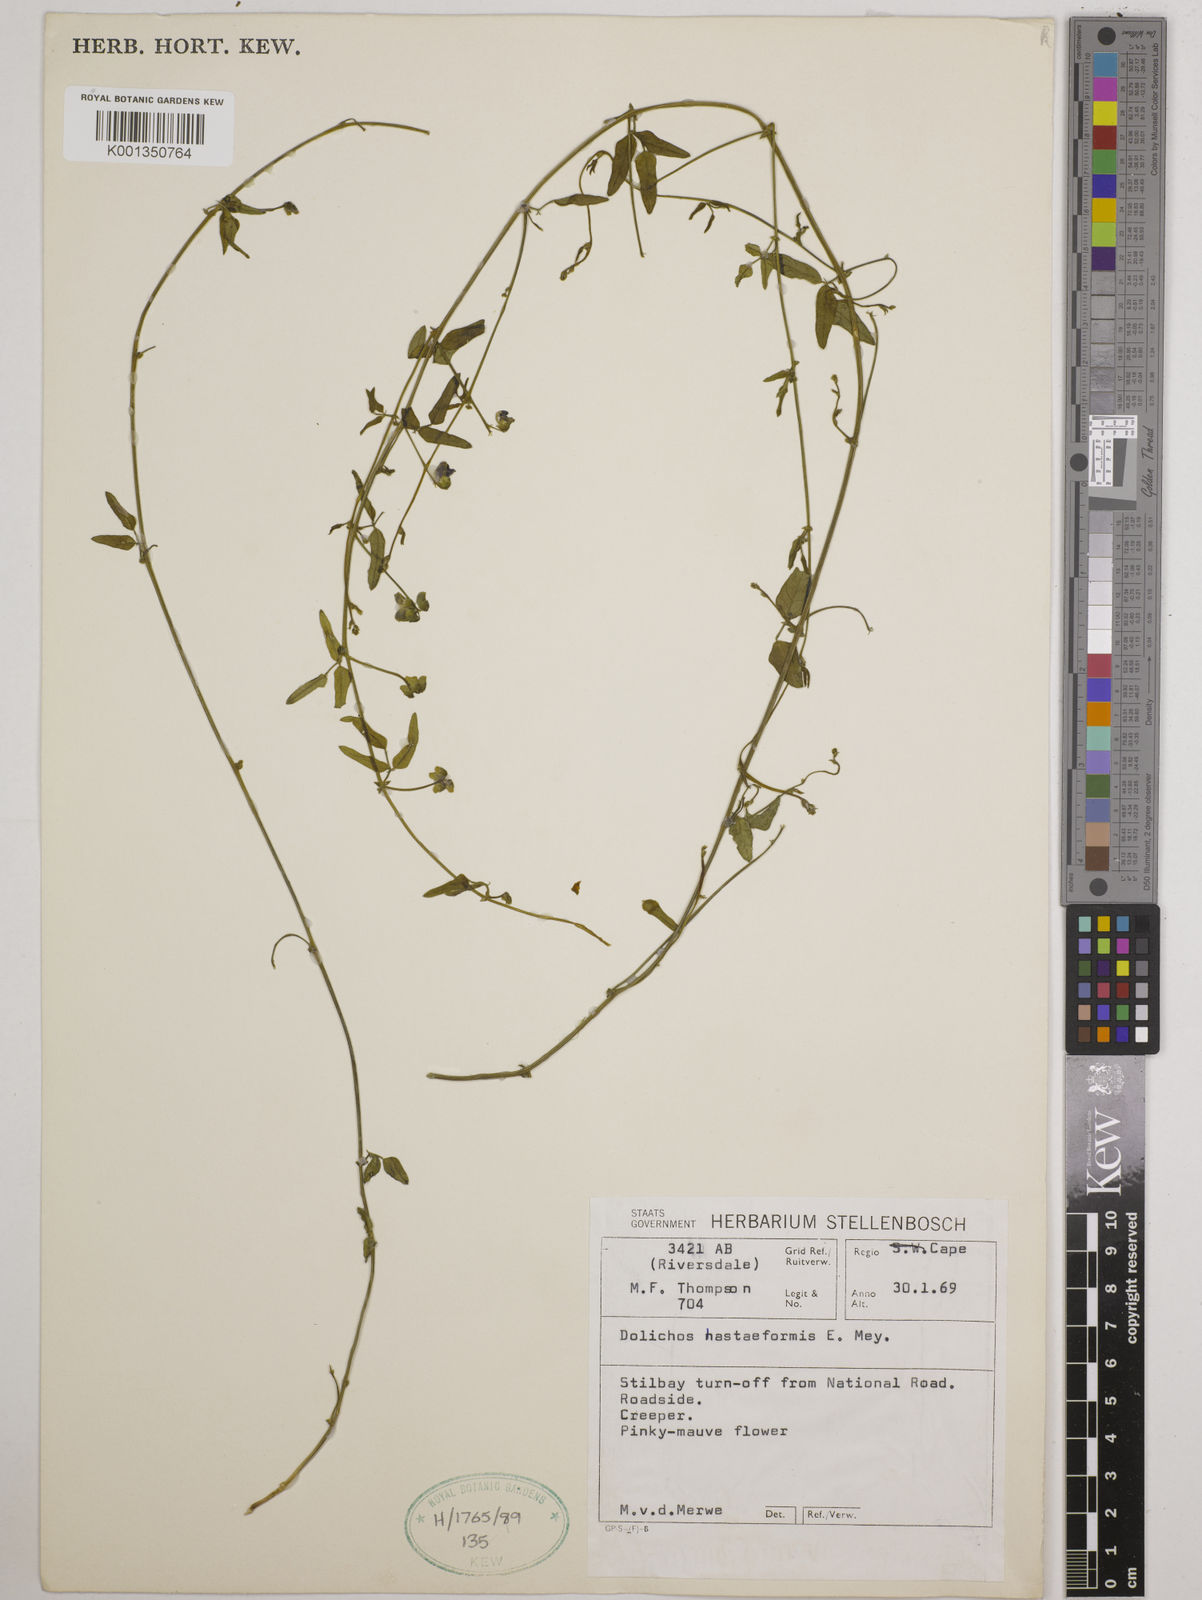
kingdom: Plantae
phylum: Tracheophyta
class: Magnoliopsida
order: Fabales
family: Fabaceae
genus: Dolichos
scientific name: Dolichos
